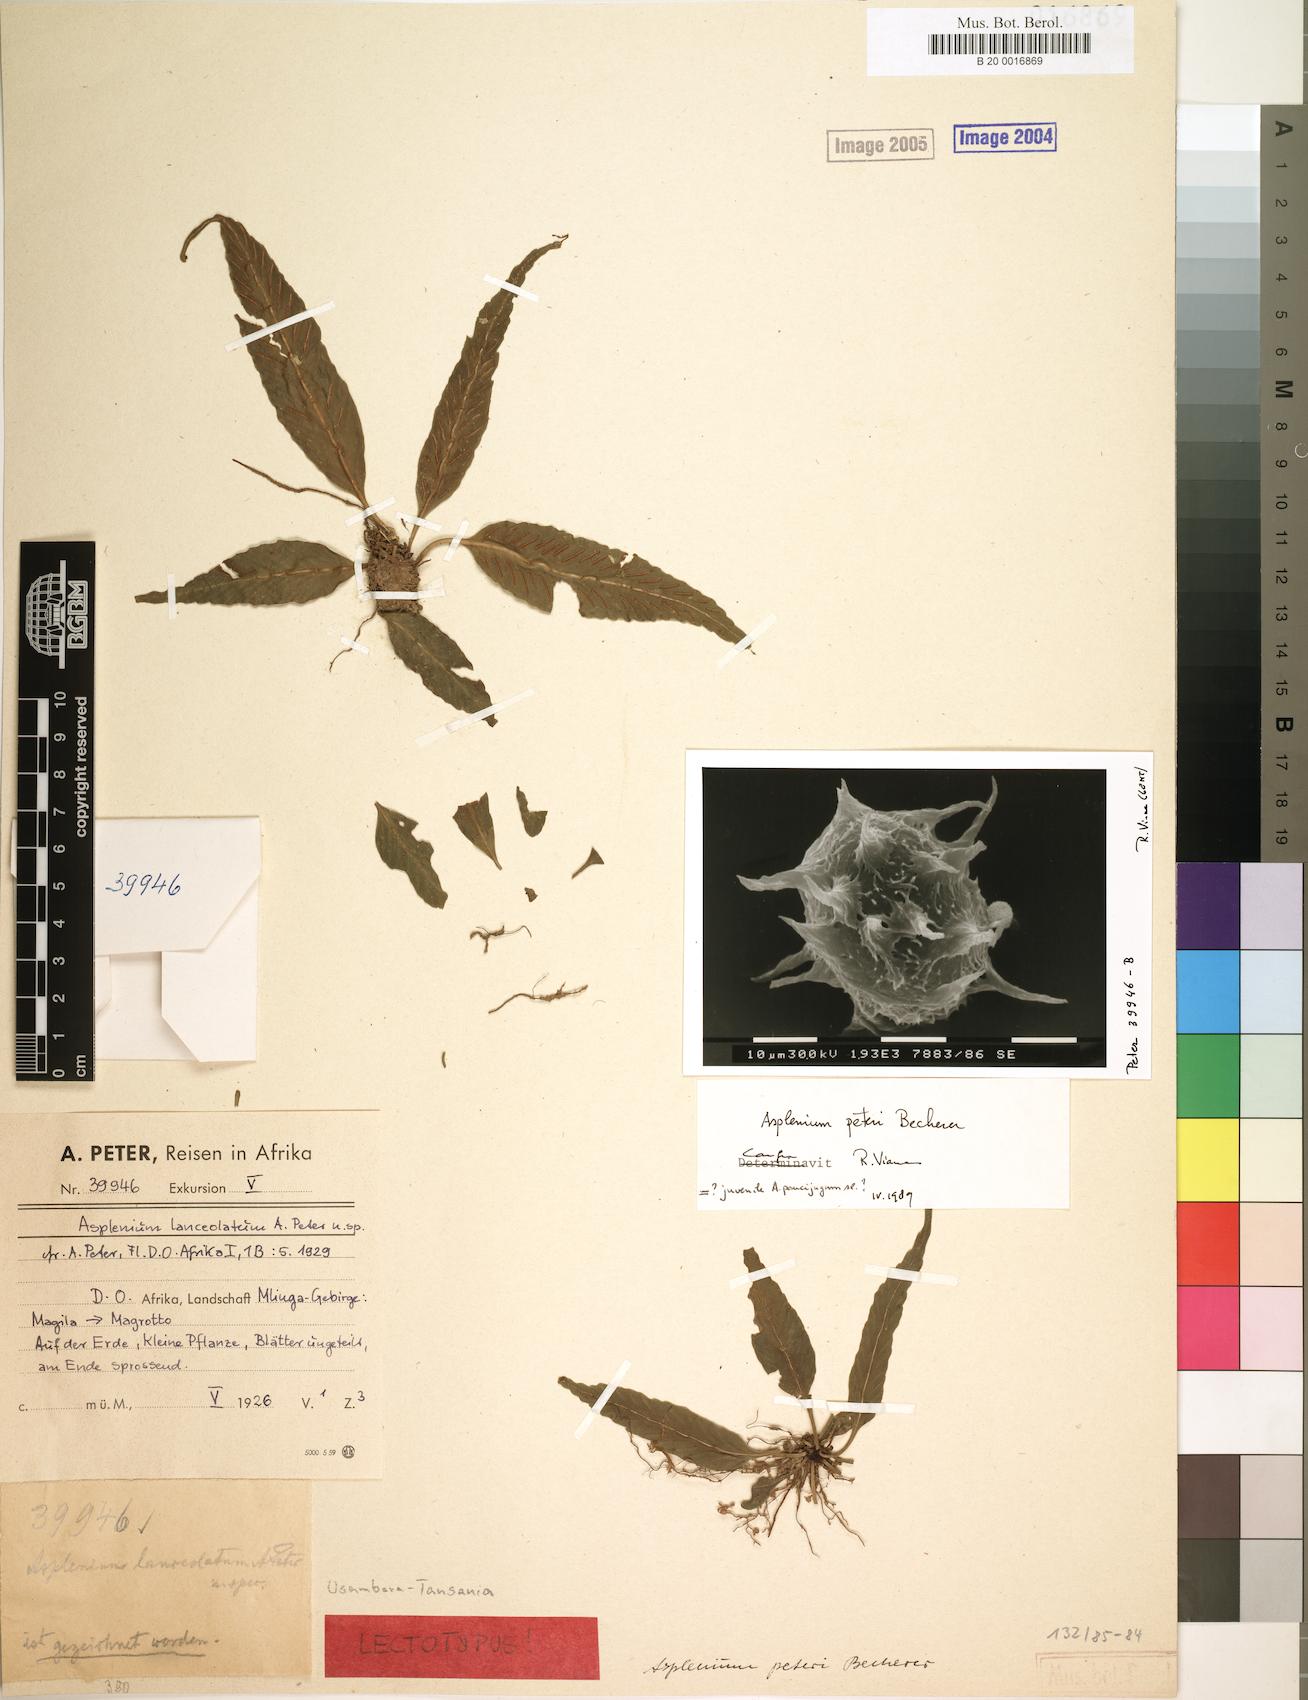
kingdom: Plantae
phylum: Tracheophyta
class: Polypodiopsida
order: Polypodiales
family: Aspleniaceae
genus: Asplenium
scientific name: Asplenium
